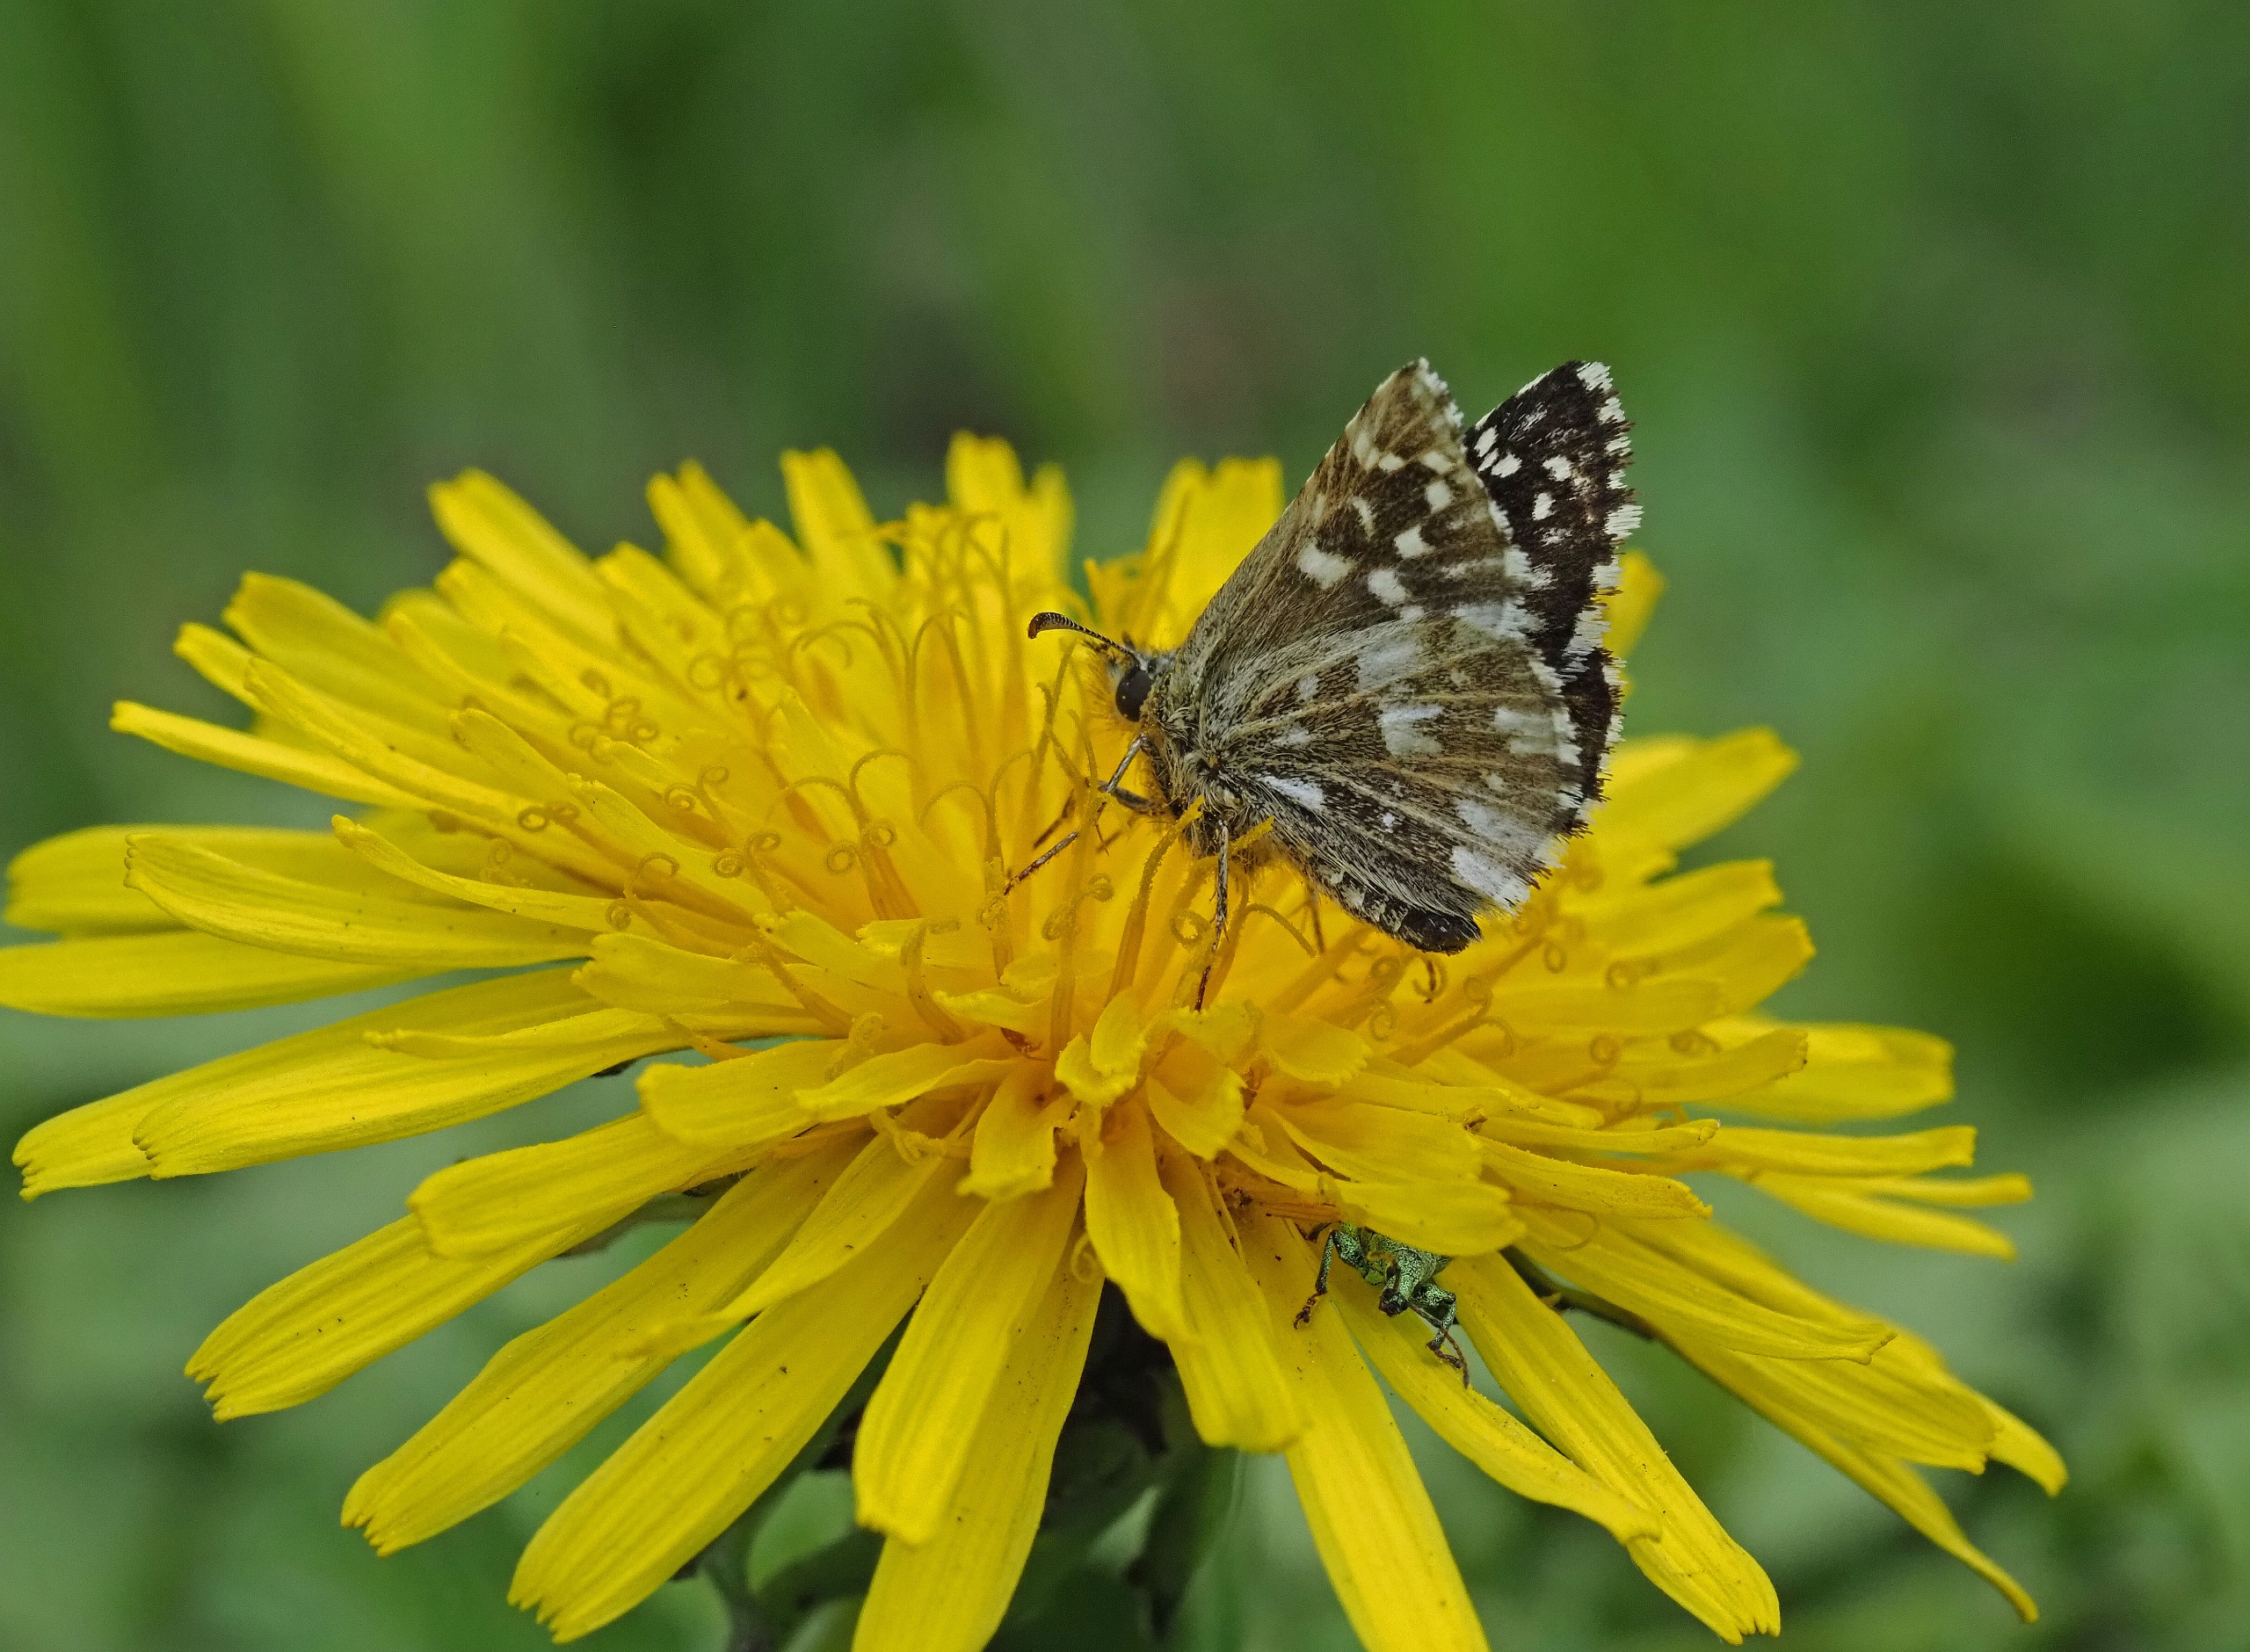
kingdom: Animalia
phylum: Arthropoda
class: Insecta
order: Lepidoptera
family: Hesperiidae
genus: Pyrgus
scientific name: Pyrgus malvae
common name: Spættet bredpande
